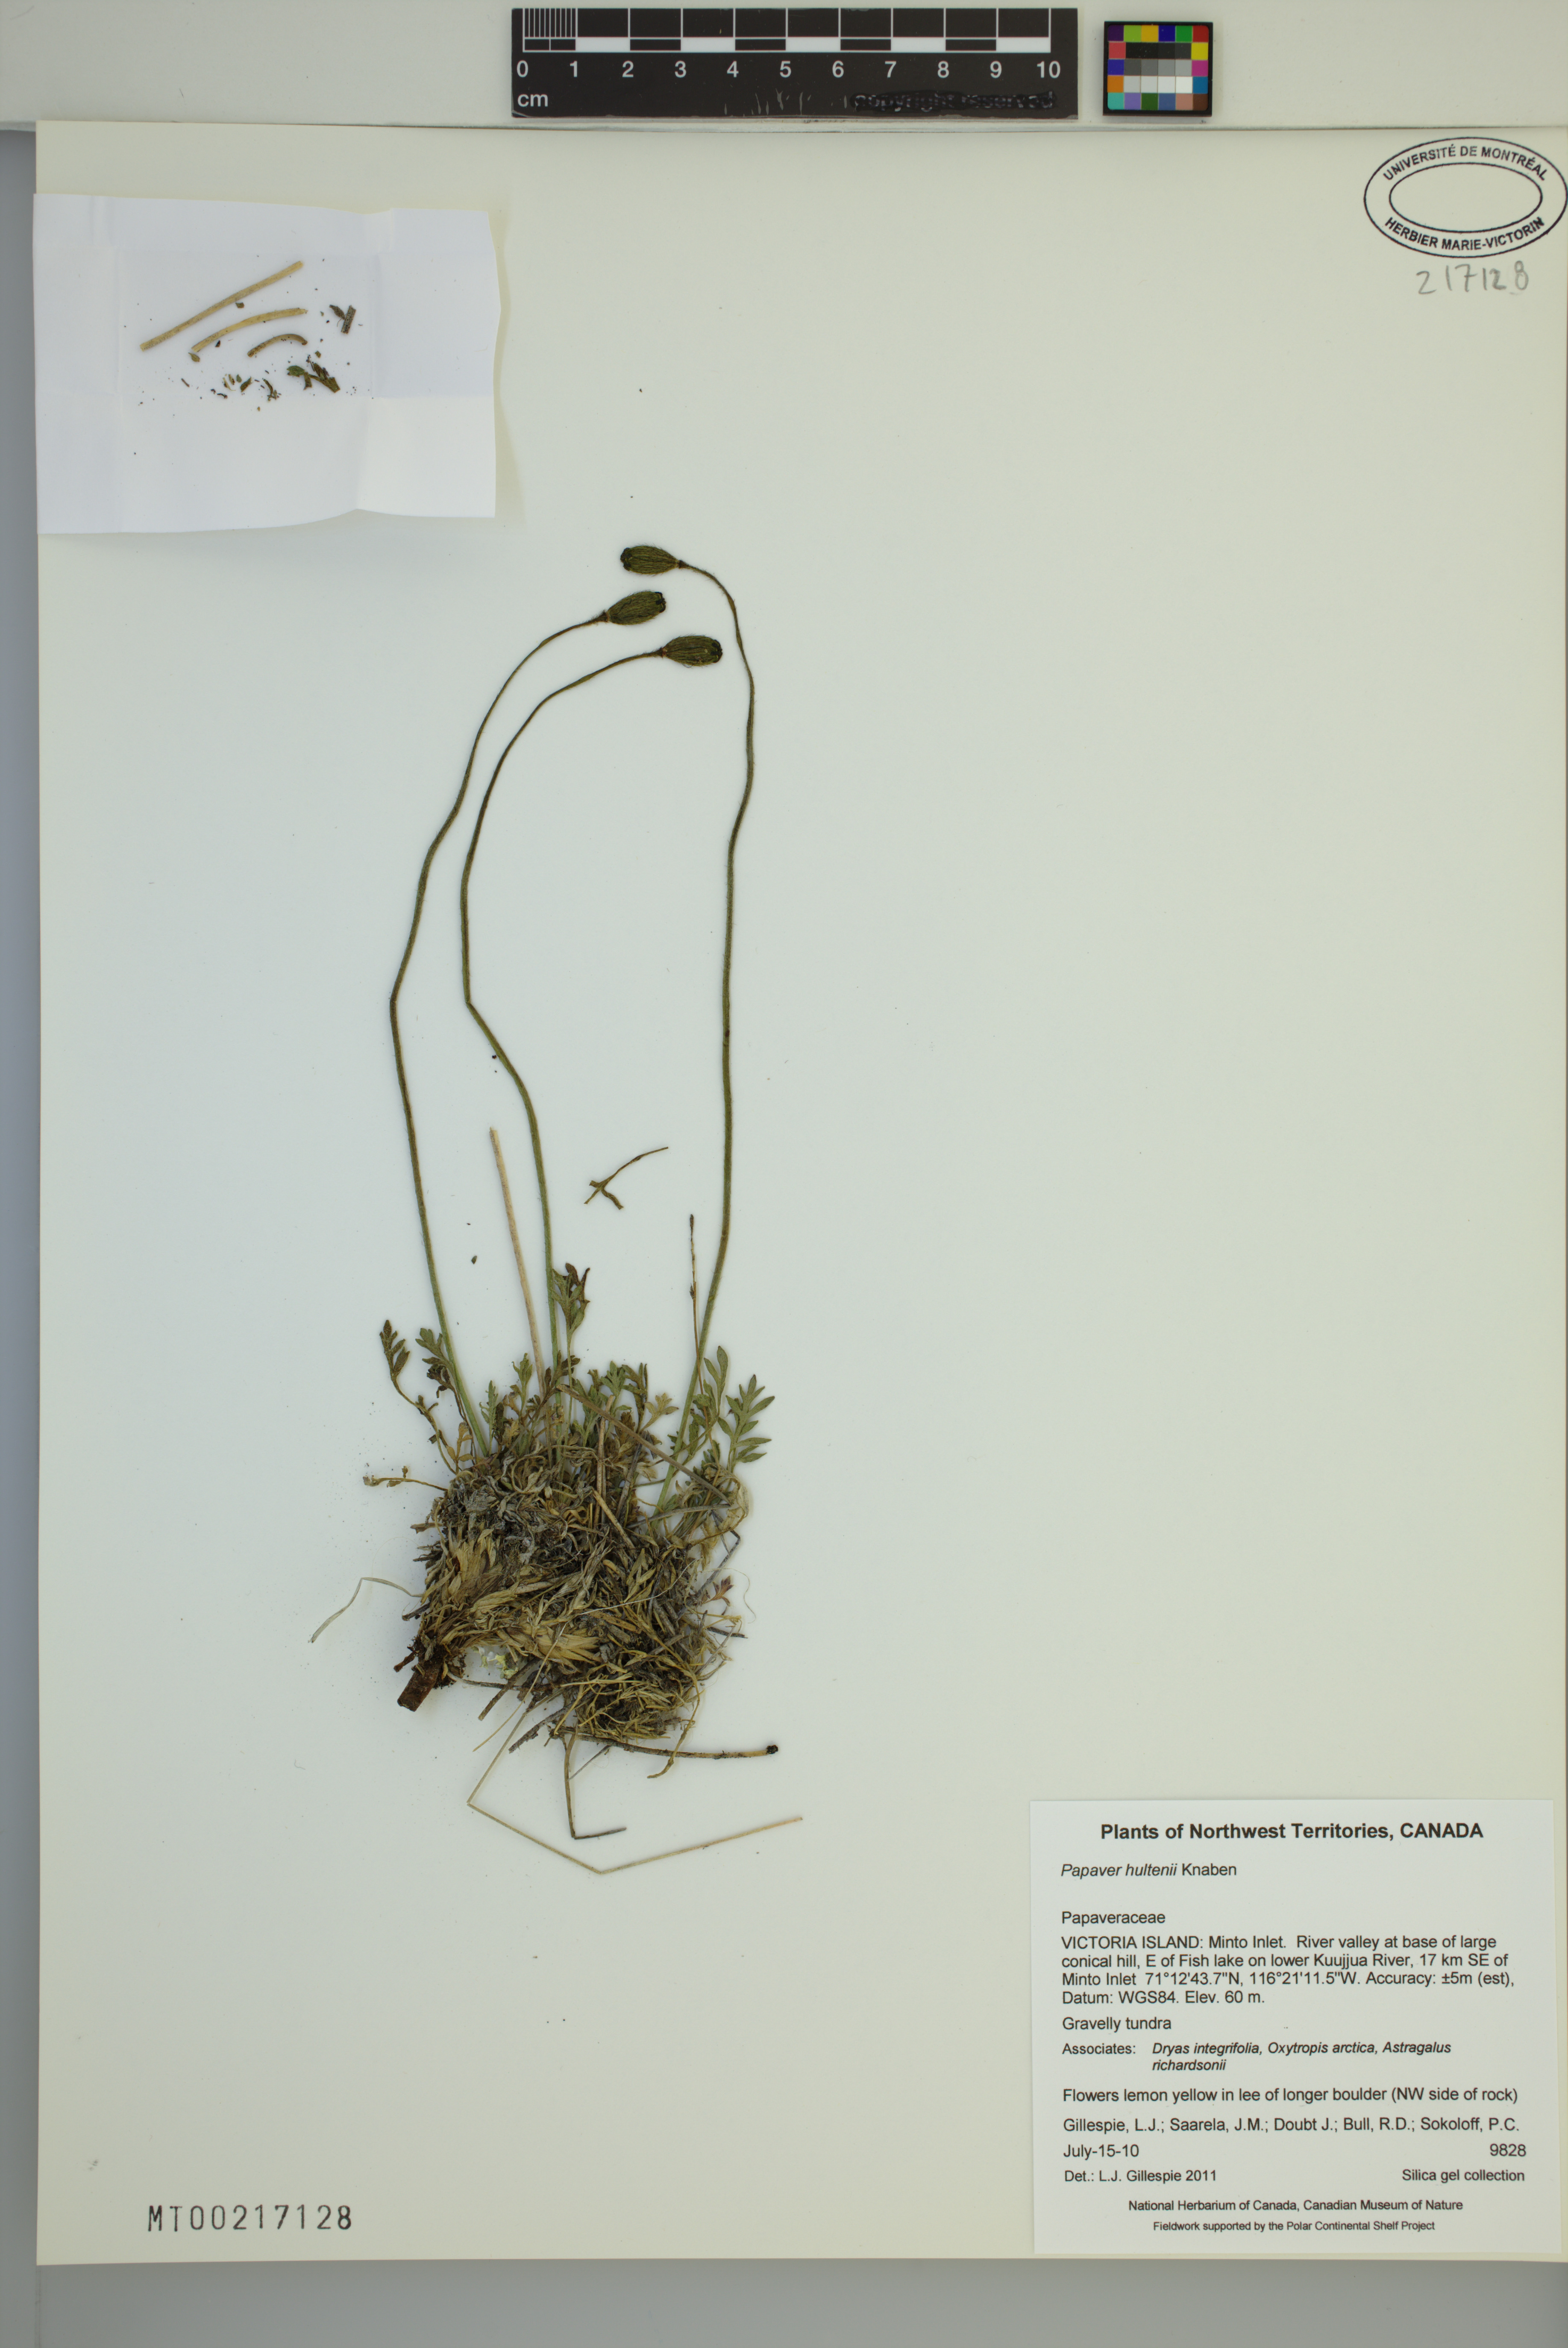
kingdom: Plantae
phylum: Tracheophyta
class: Magnoliopsida
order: Ranunculales
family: Papaveraceae
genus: Papaver
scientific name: Papaver lapponicum
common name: Lapland poppy
